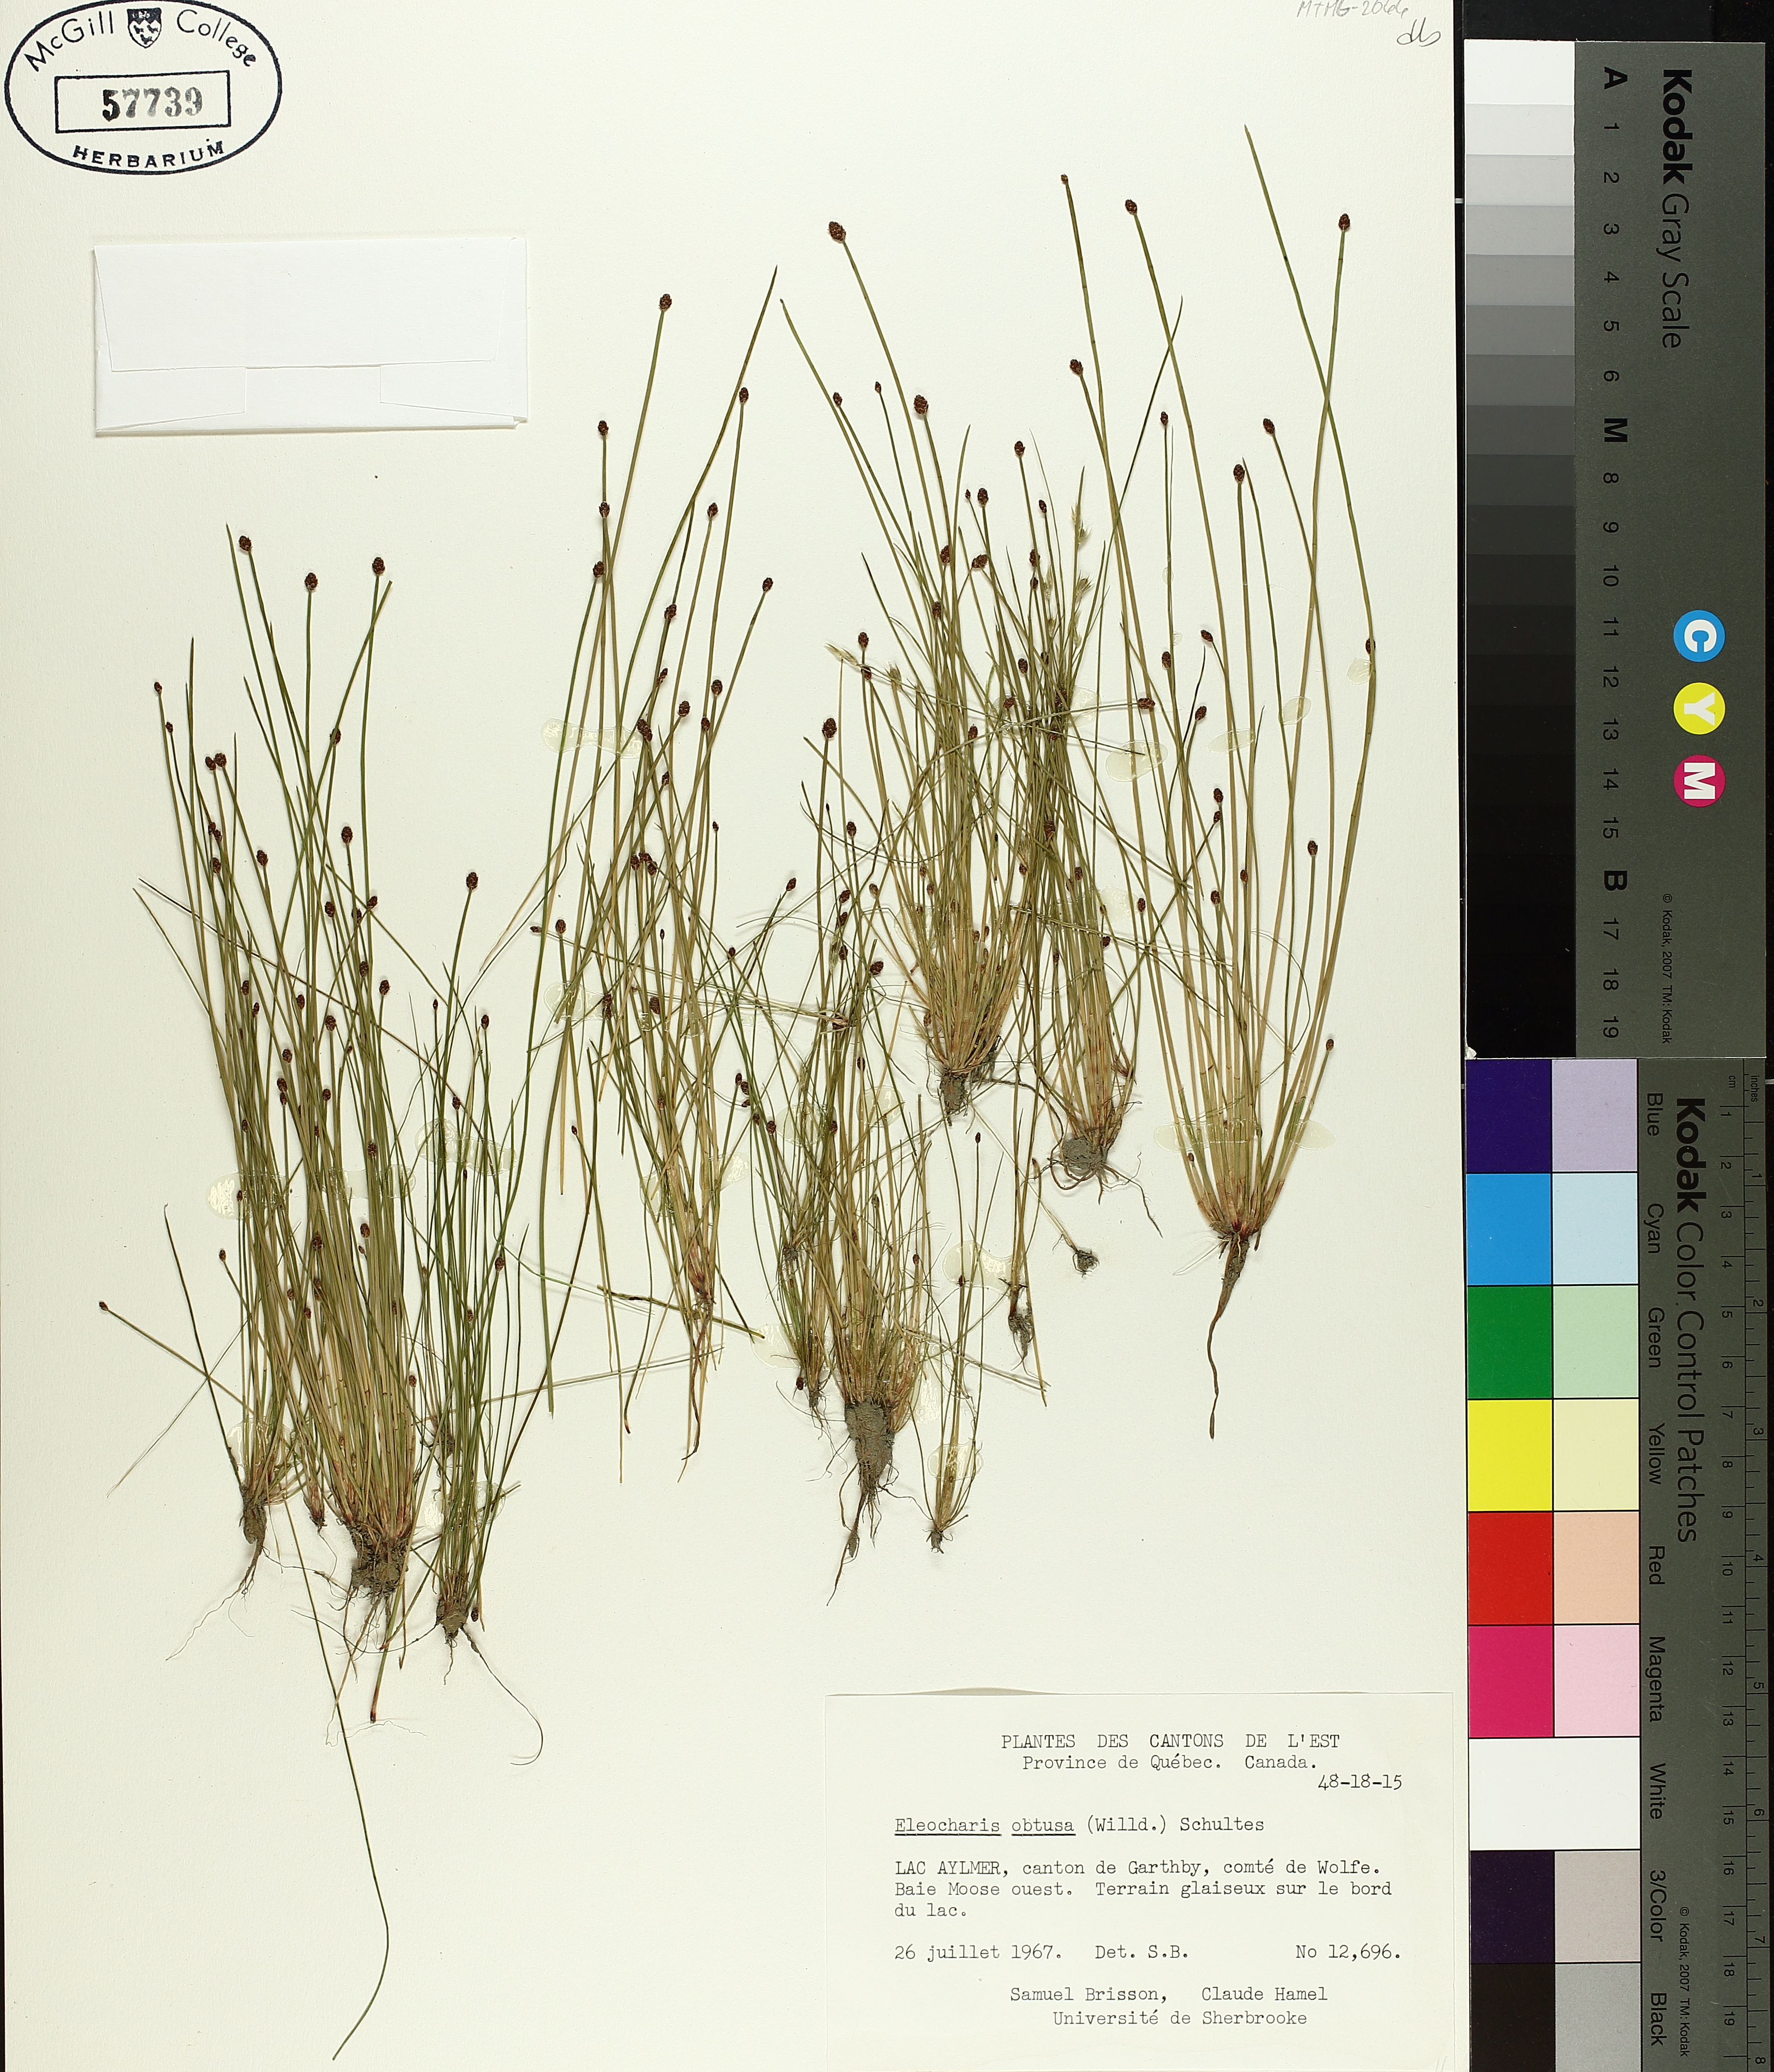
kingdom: Plantae
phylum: Tracheophyta
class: Liliopsida
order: Poales
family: Cyperaceae
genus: Eleocharis
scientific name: Eleocharis obtusa
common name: Blunt spikerush
